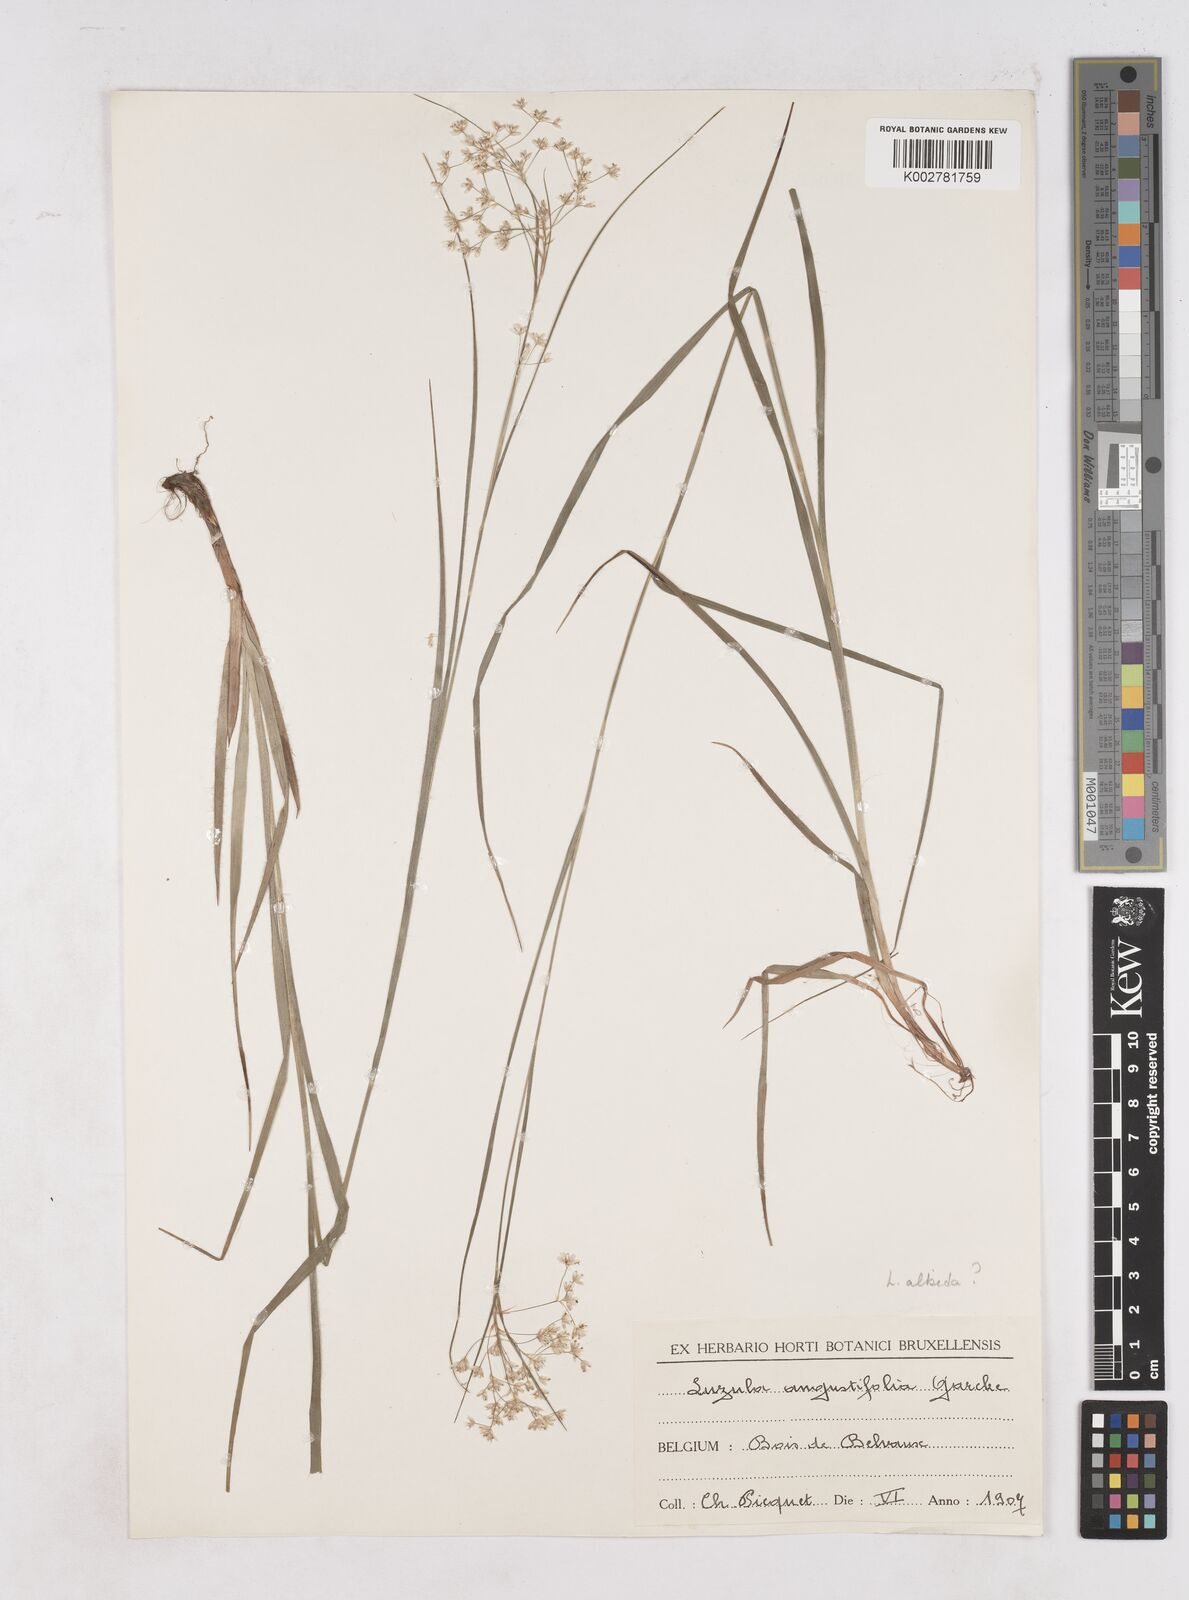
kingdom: Plantae
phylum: Tracheophyta
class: Liliopsida
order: Poales
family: Juncaceae
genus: Luzula
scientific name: Luzula luzuloides
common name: White wood-rush
